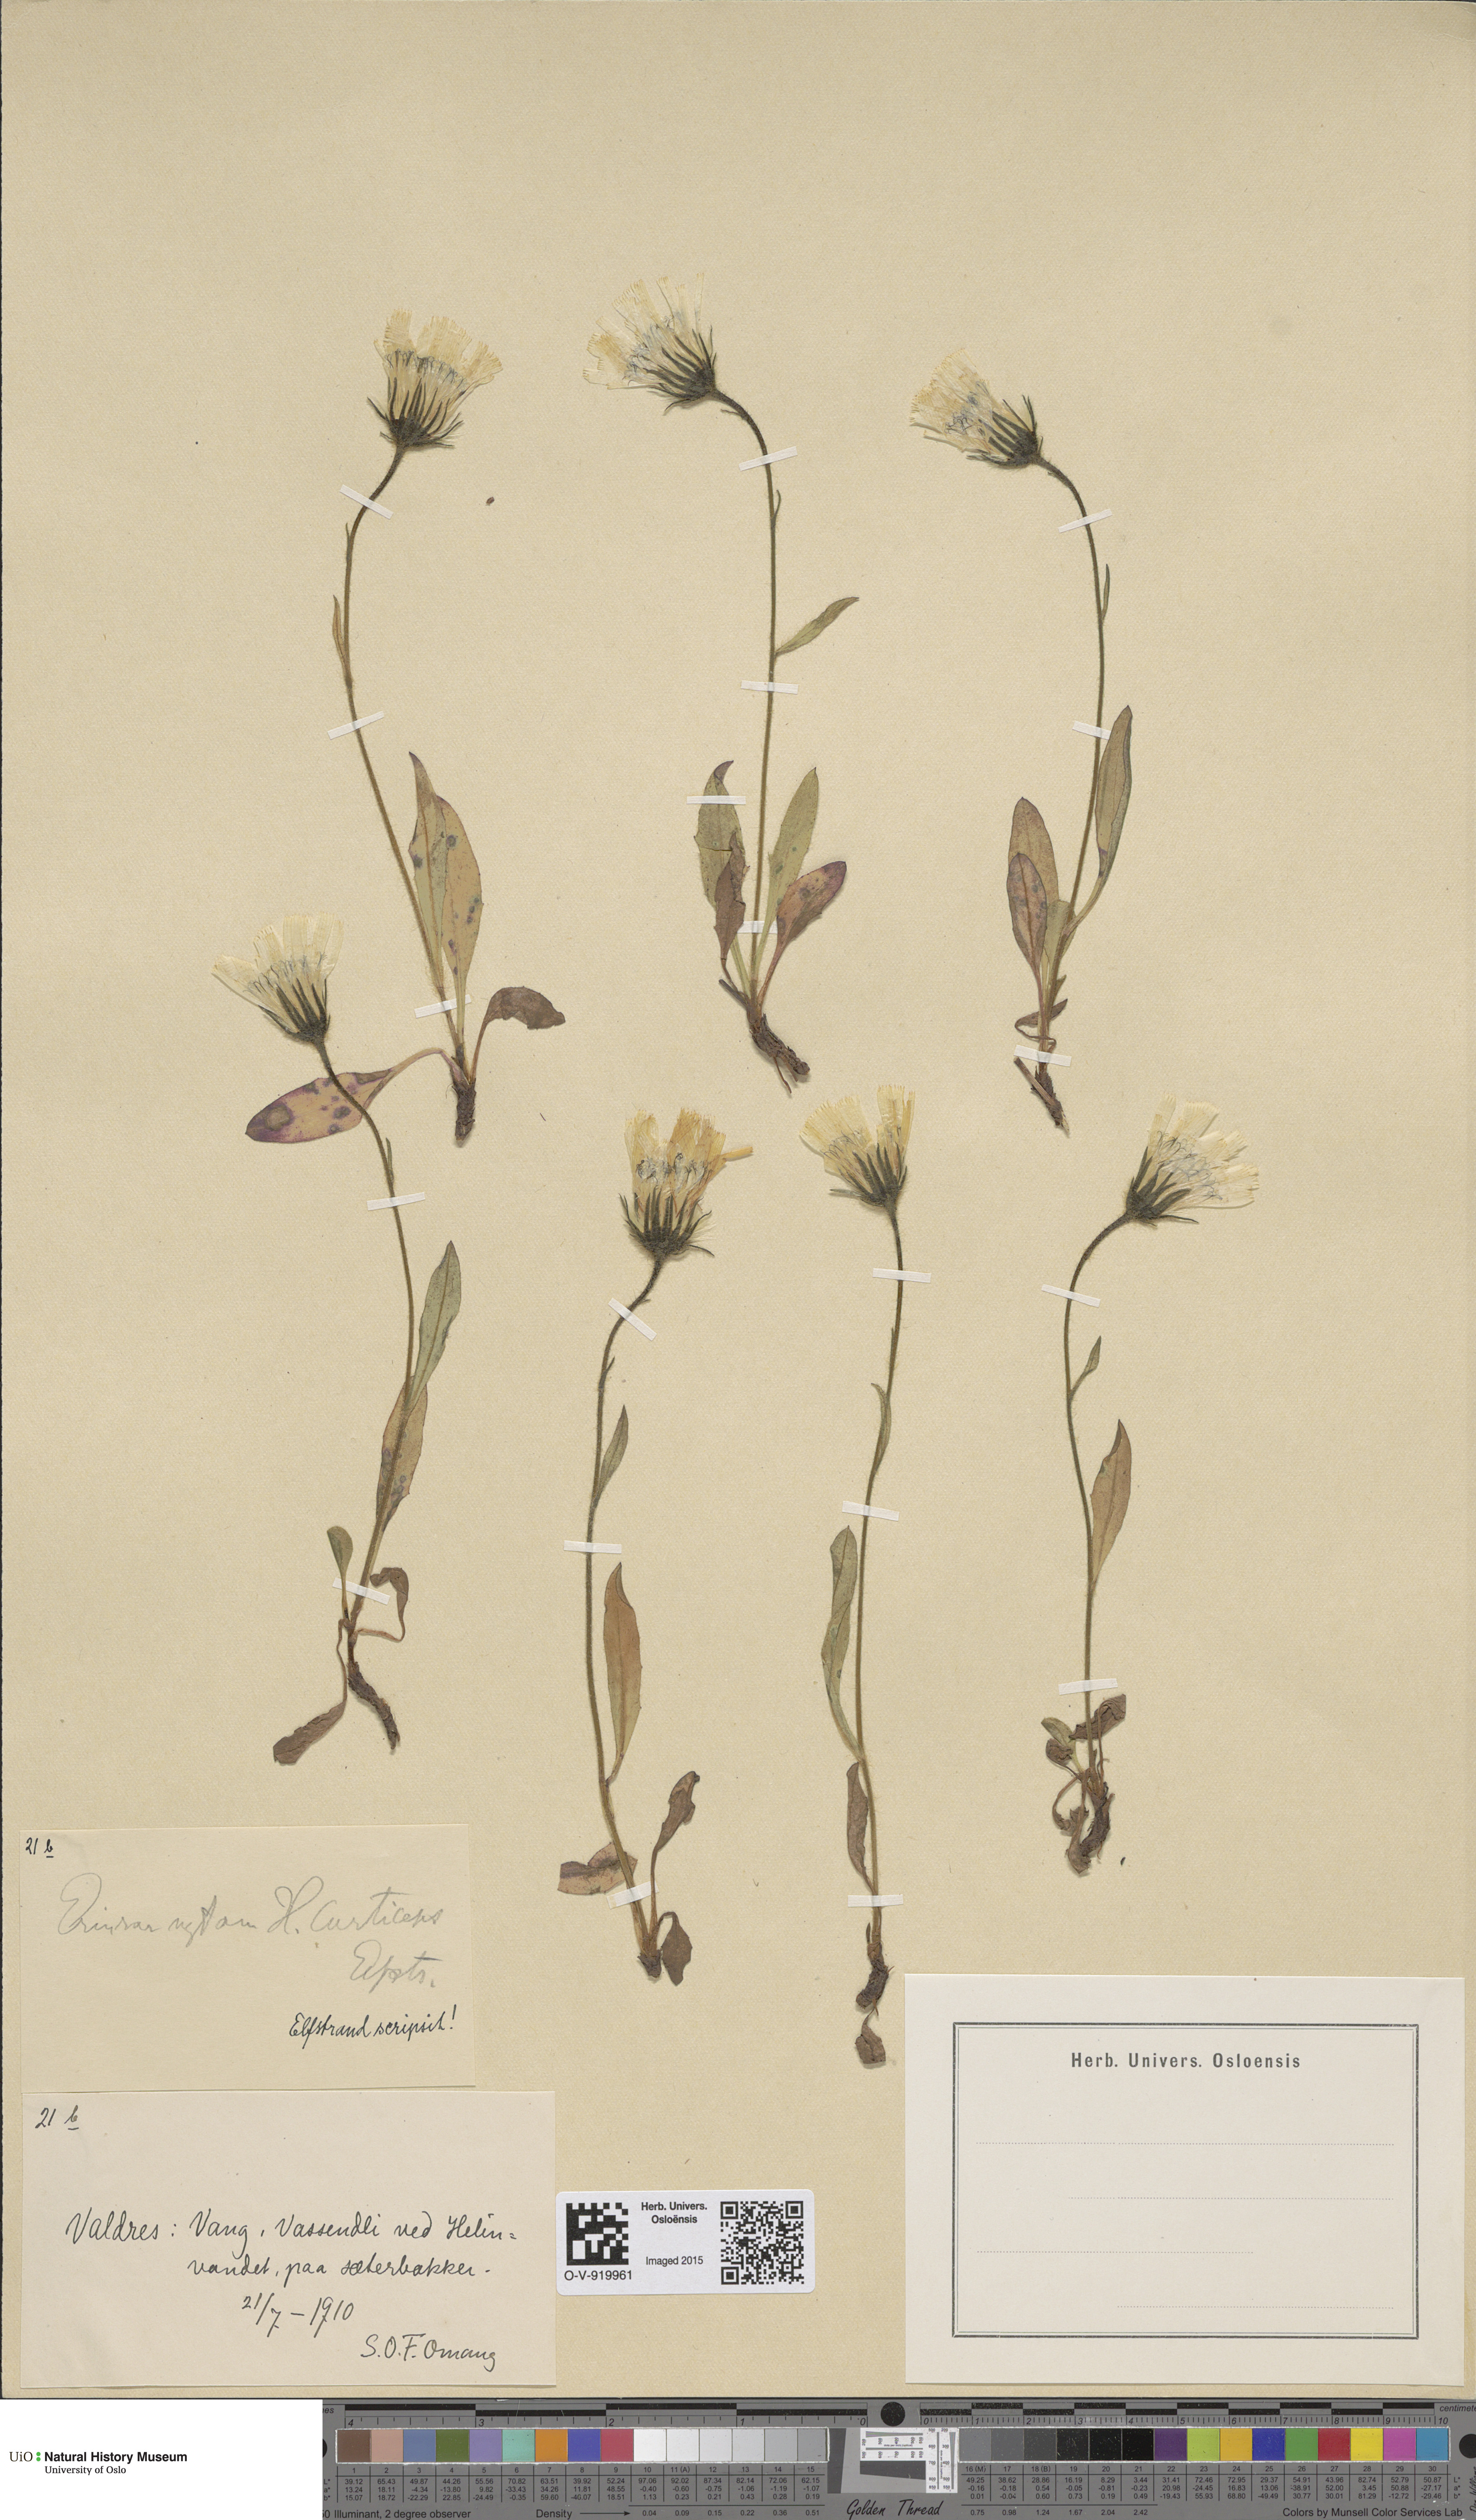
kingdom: Plantae
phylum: Tracheophyta
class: Magnoliopsida
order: Asterales
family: Asteraceae
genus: Hieracium
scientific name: Hieracium
